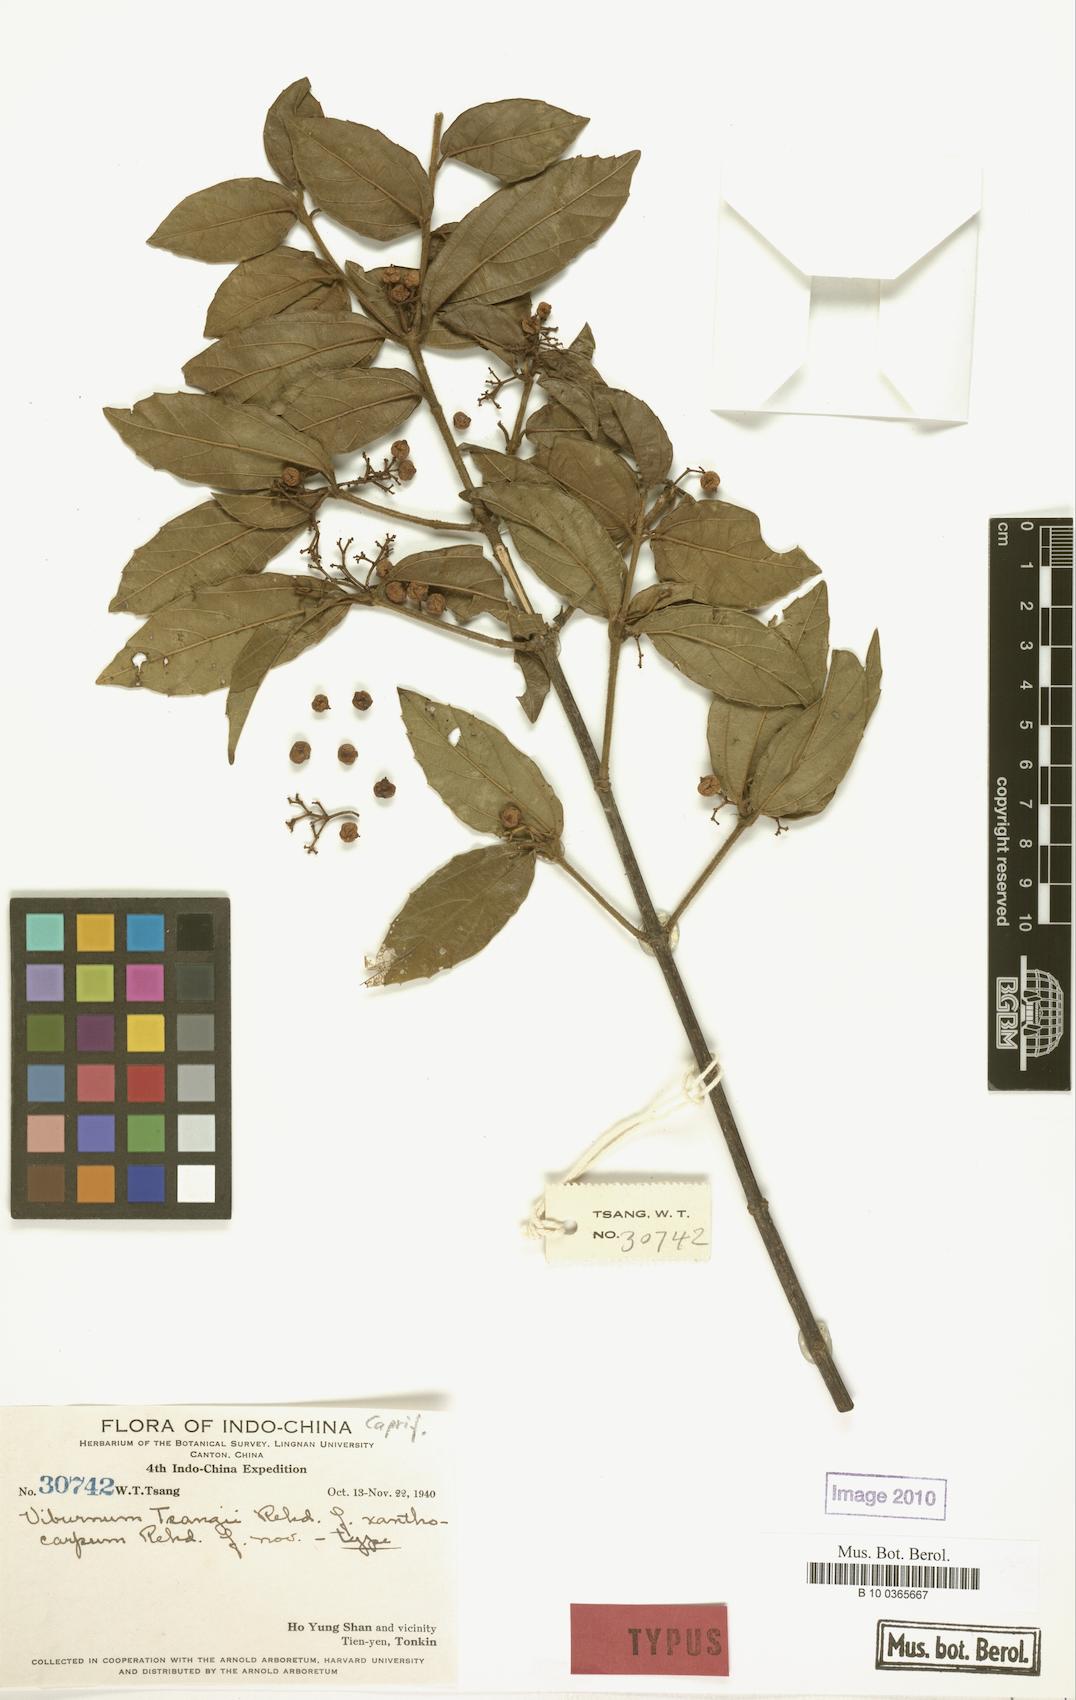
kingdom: Plantae
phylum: Tracheophyta
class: Magnoliopsida
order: Dipsacales
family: Viburnaceae
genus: Viburnum
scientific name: Viburnum hainanense
